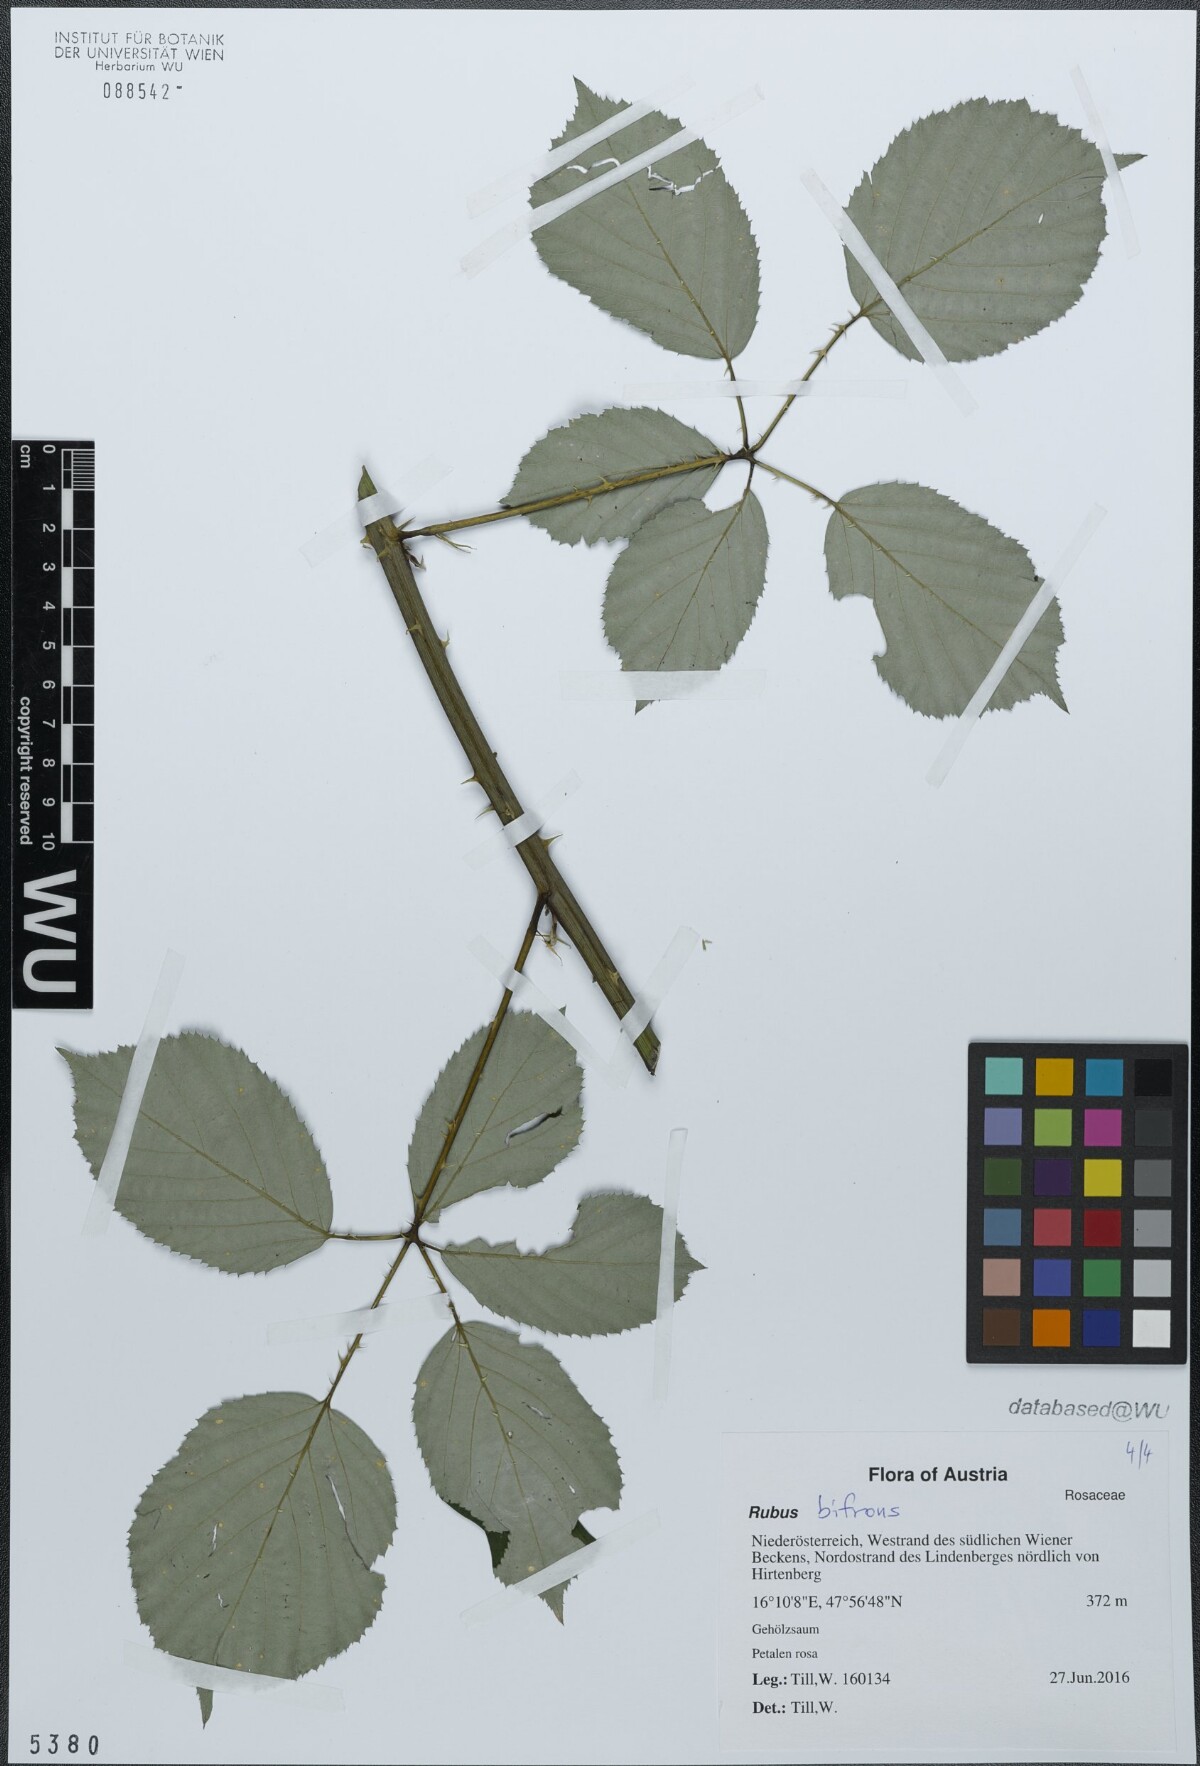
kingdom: Plantae
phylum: Tracheophyta
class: Magnoliopsida
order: Rosales
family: Rosaceae
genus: Rubus
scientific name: Rubus bifrons
